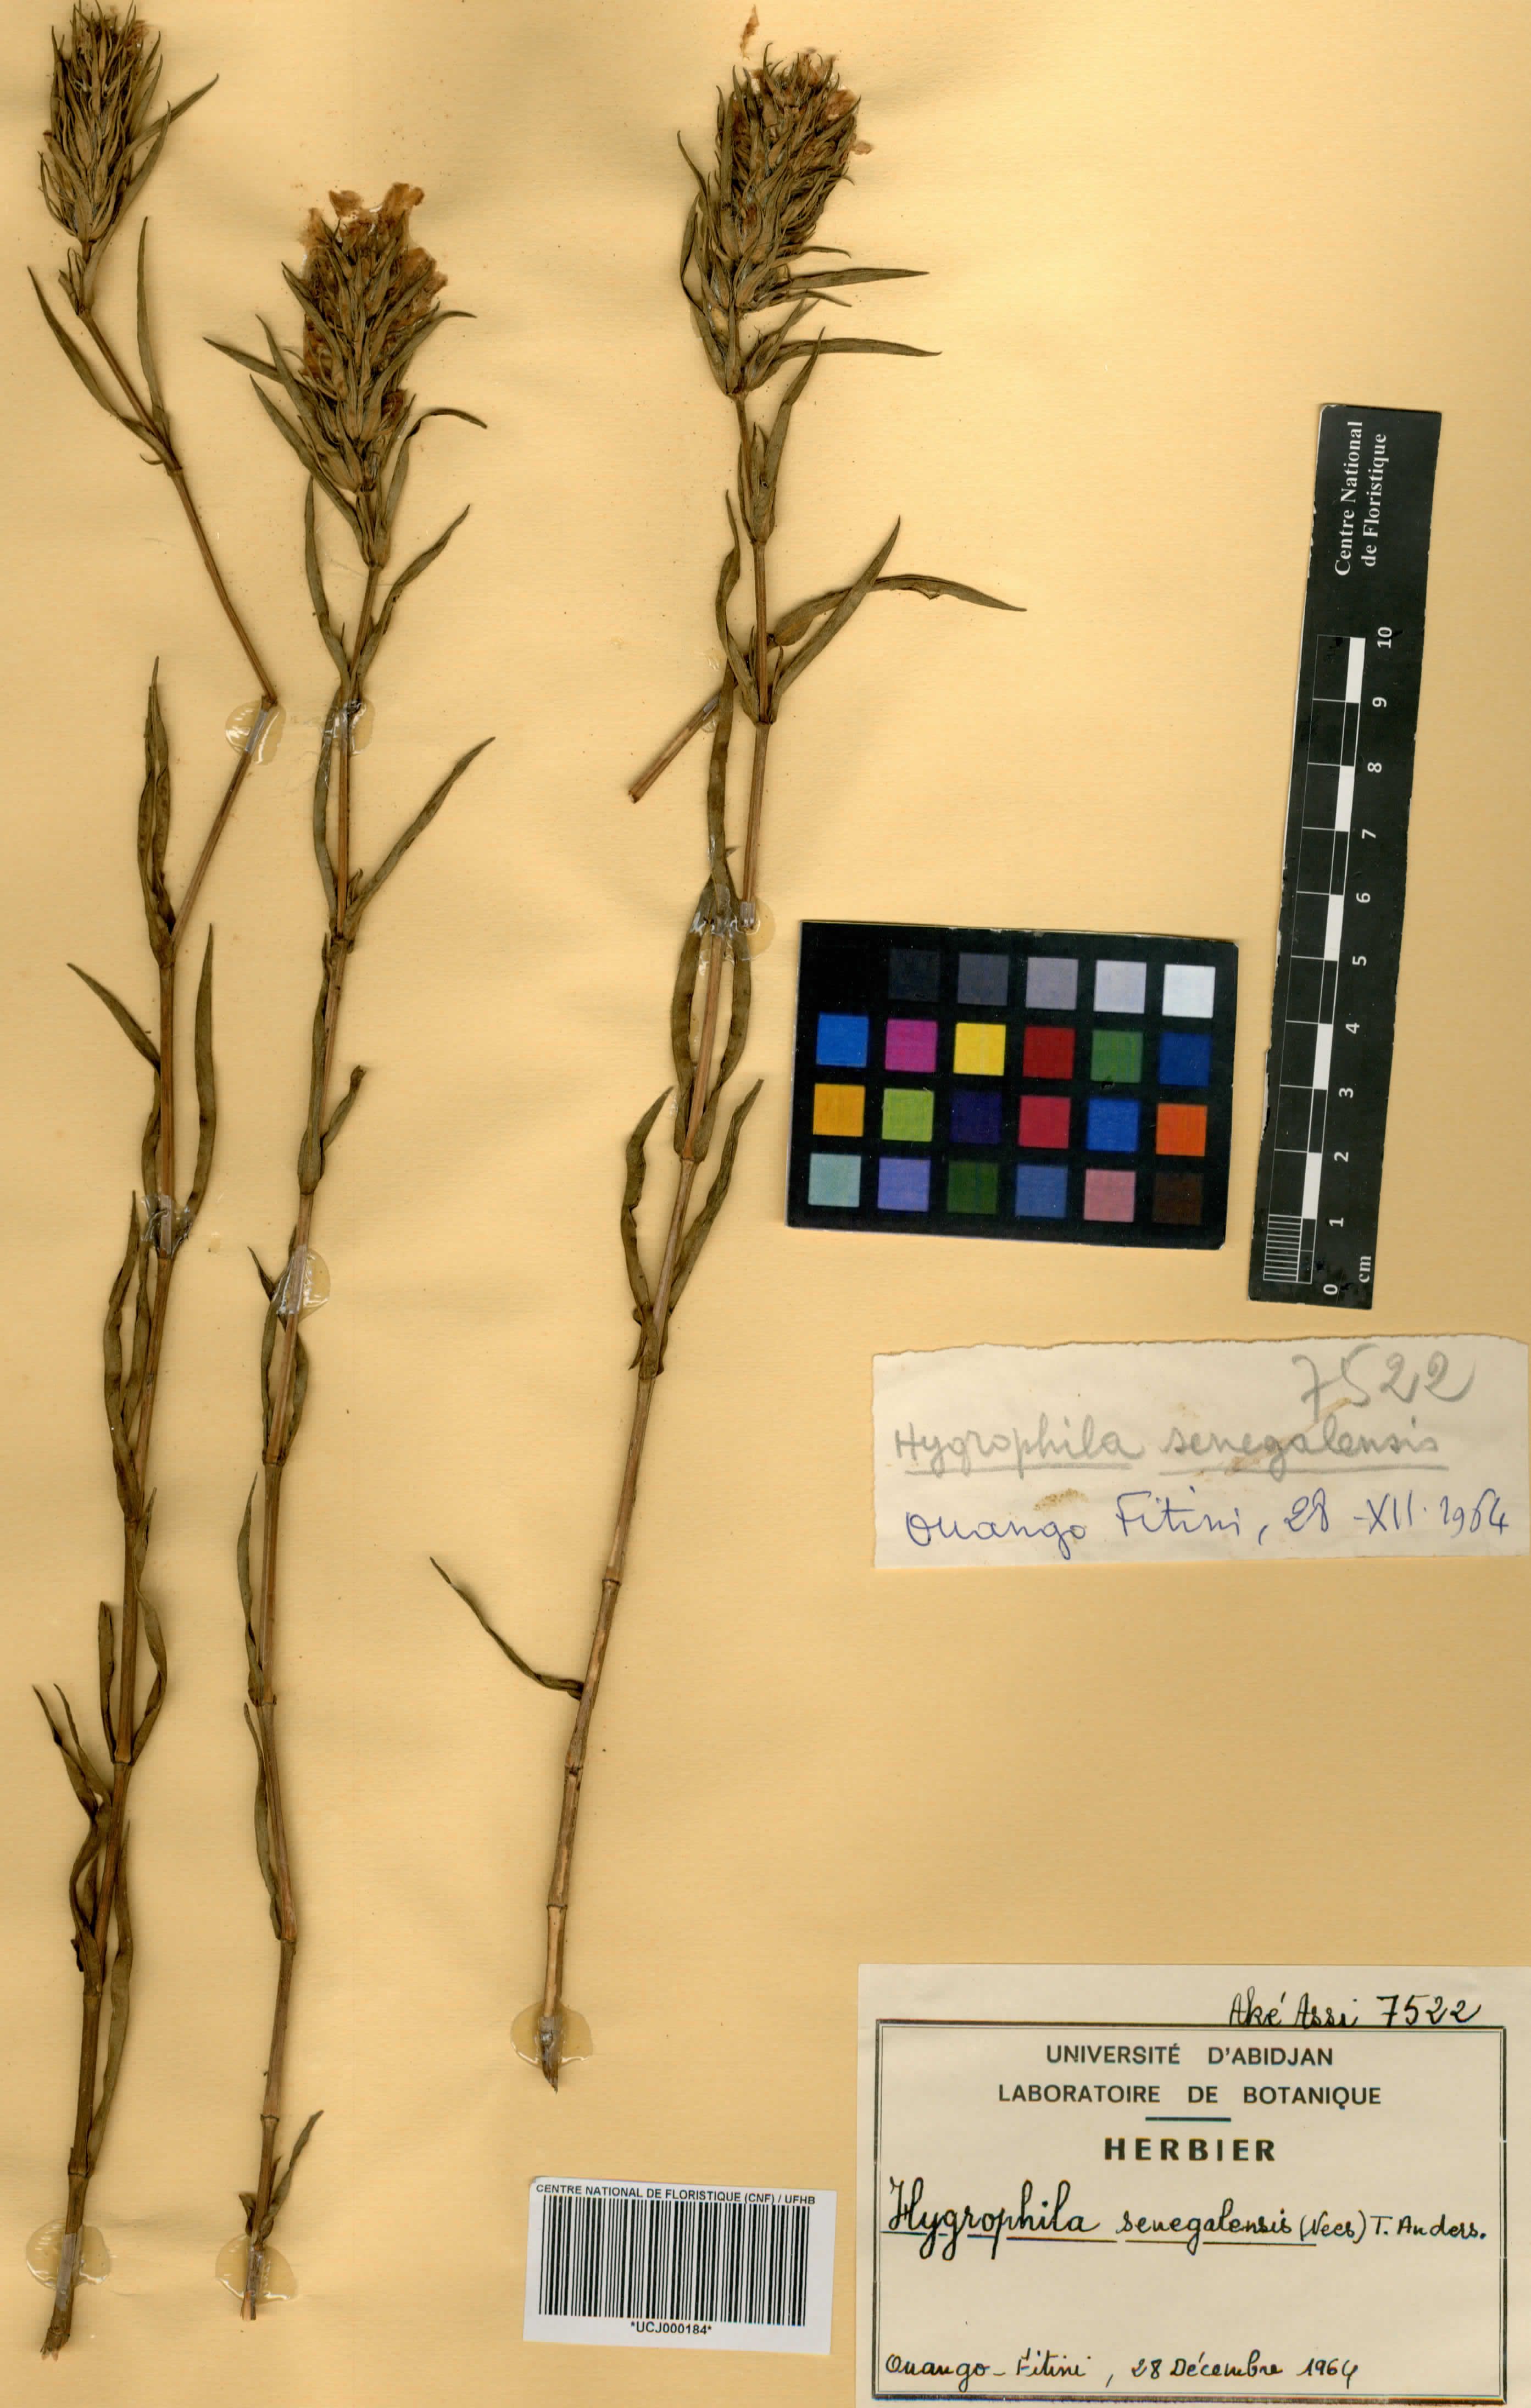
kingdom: Plantae
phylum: Tracheophyta
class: Magnoliopsida
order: Lamiales
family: Acanthaceae
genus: Hygrophila
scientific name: Hygrophila micrantha
